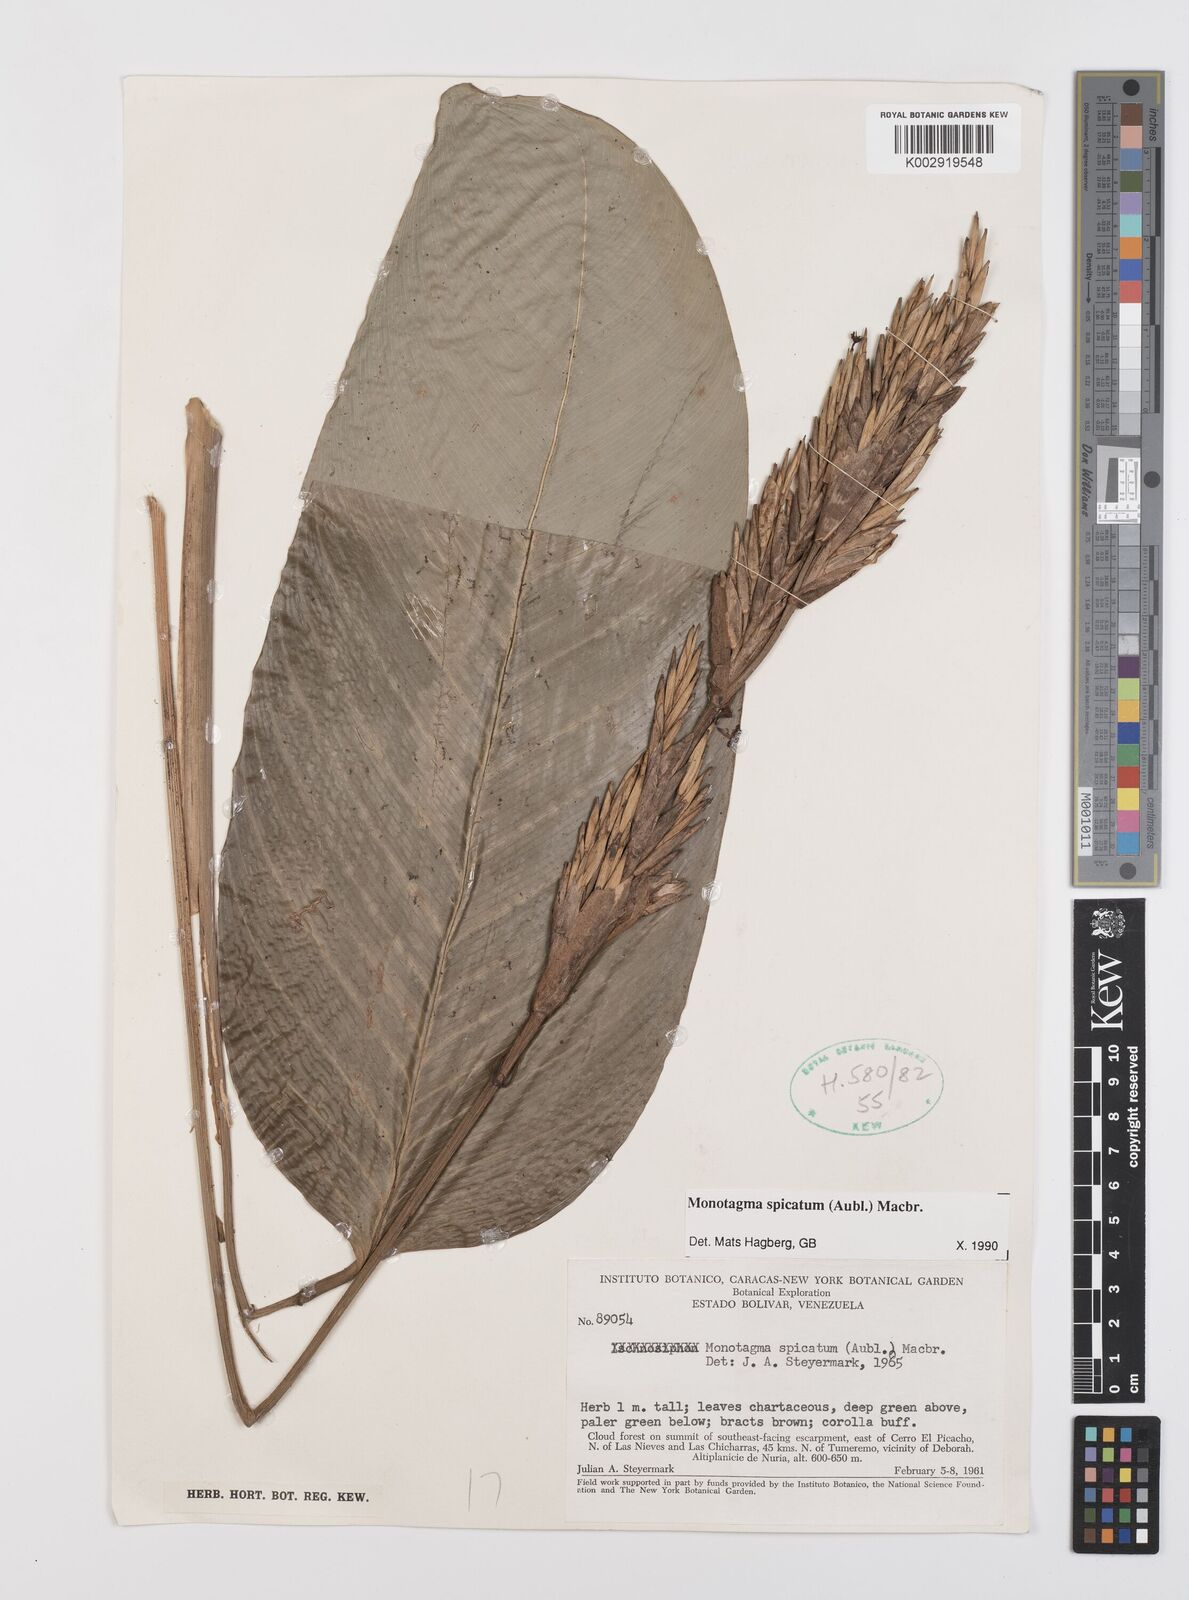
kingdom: Plantae
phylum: Tracheophyta
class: Liliopsida
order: Zingiberales
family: Marantaceae
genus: Monotagma
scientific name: Monotagma spicatum
